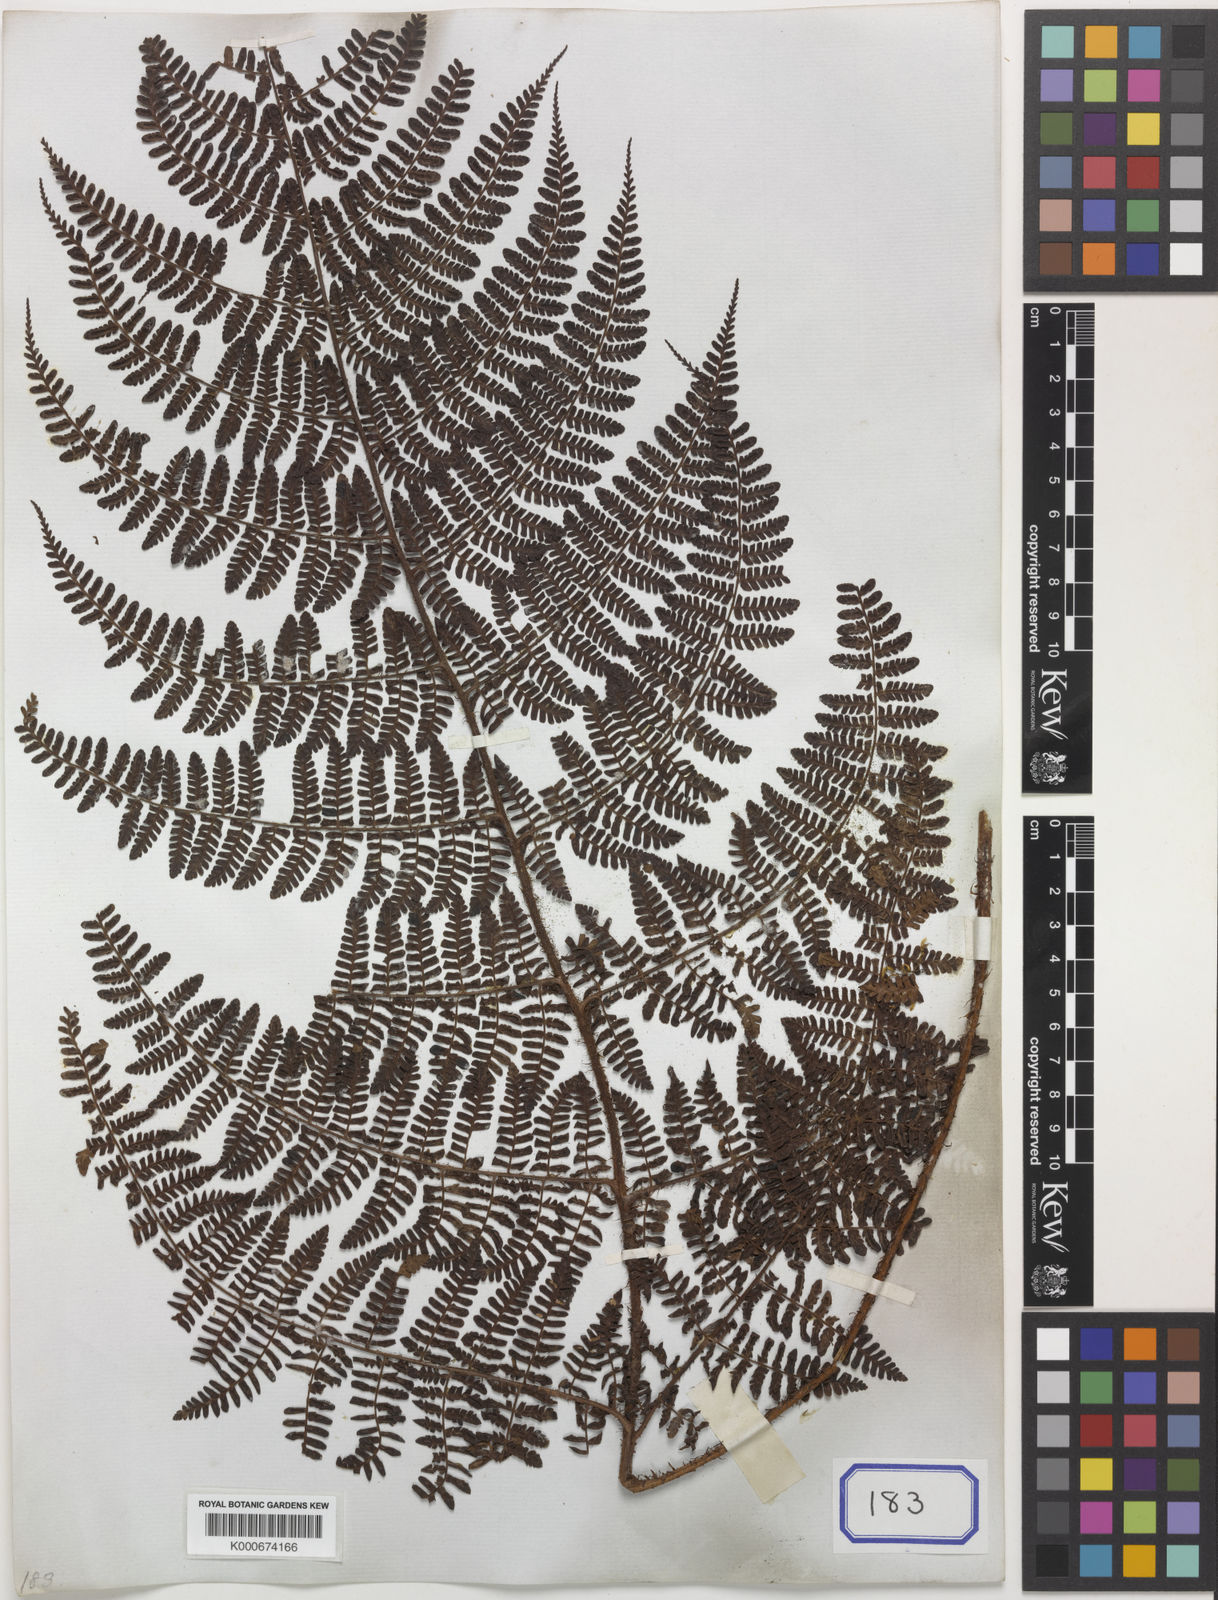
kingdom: Plantae
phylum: Tracheophyta
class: Polypodiopsida
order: Polypodiales
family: Dryopteridaceae
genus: Dryopteris
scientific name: Dryopteris peranema
